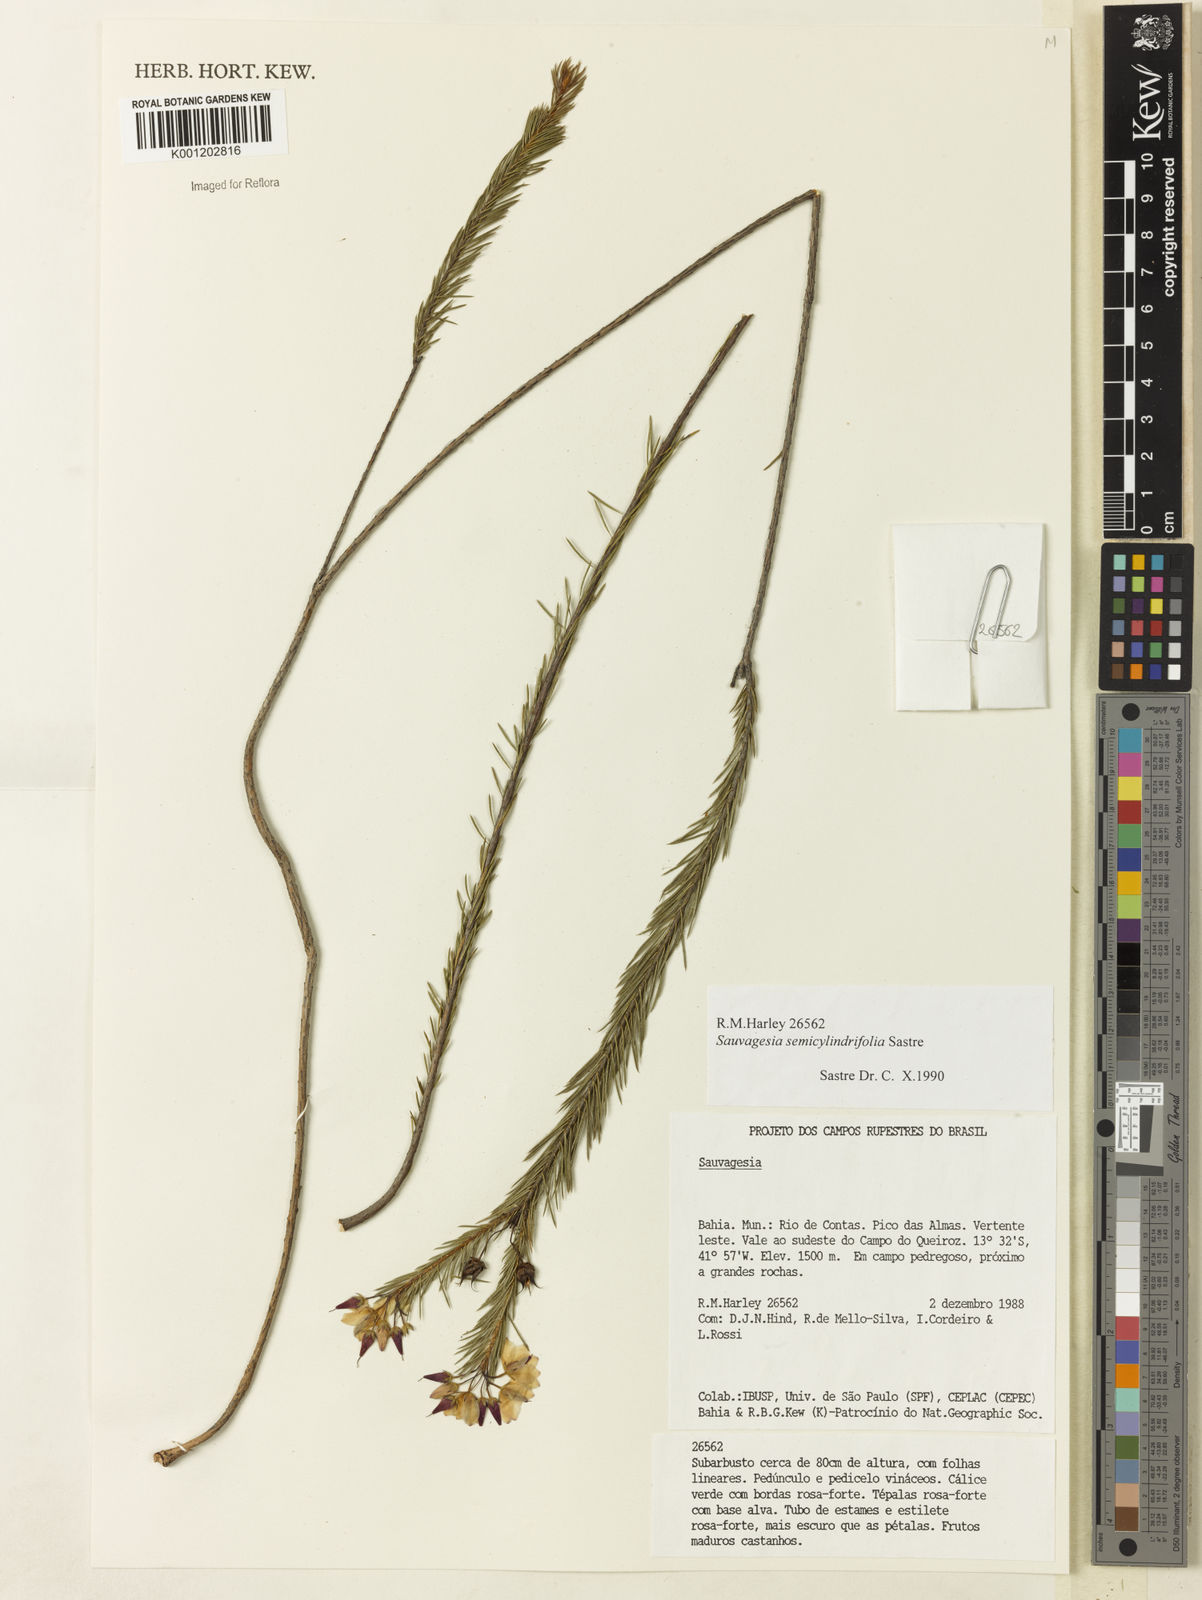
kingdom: Plantae
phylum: Tracheophyta
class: Magnoliopsida
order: Malpighiales
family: Ochnaceae
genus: Sauvagesia
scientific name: Sauvagesia semicylindrifolia
